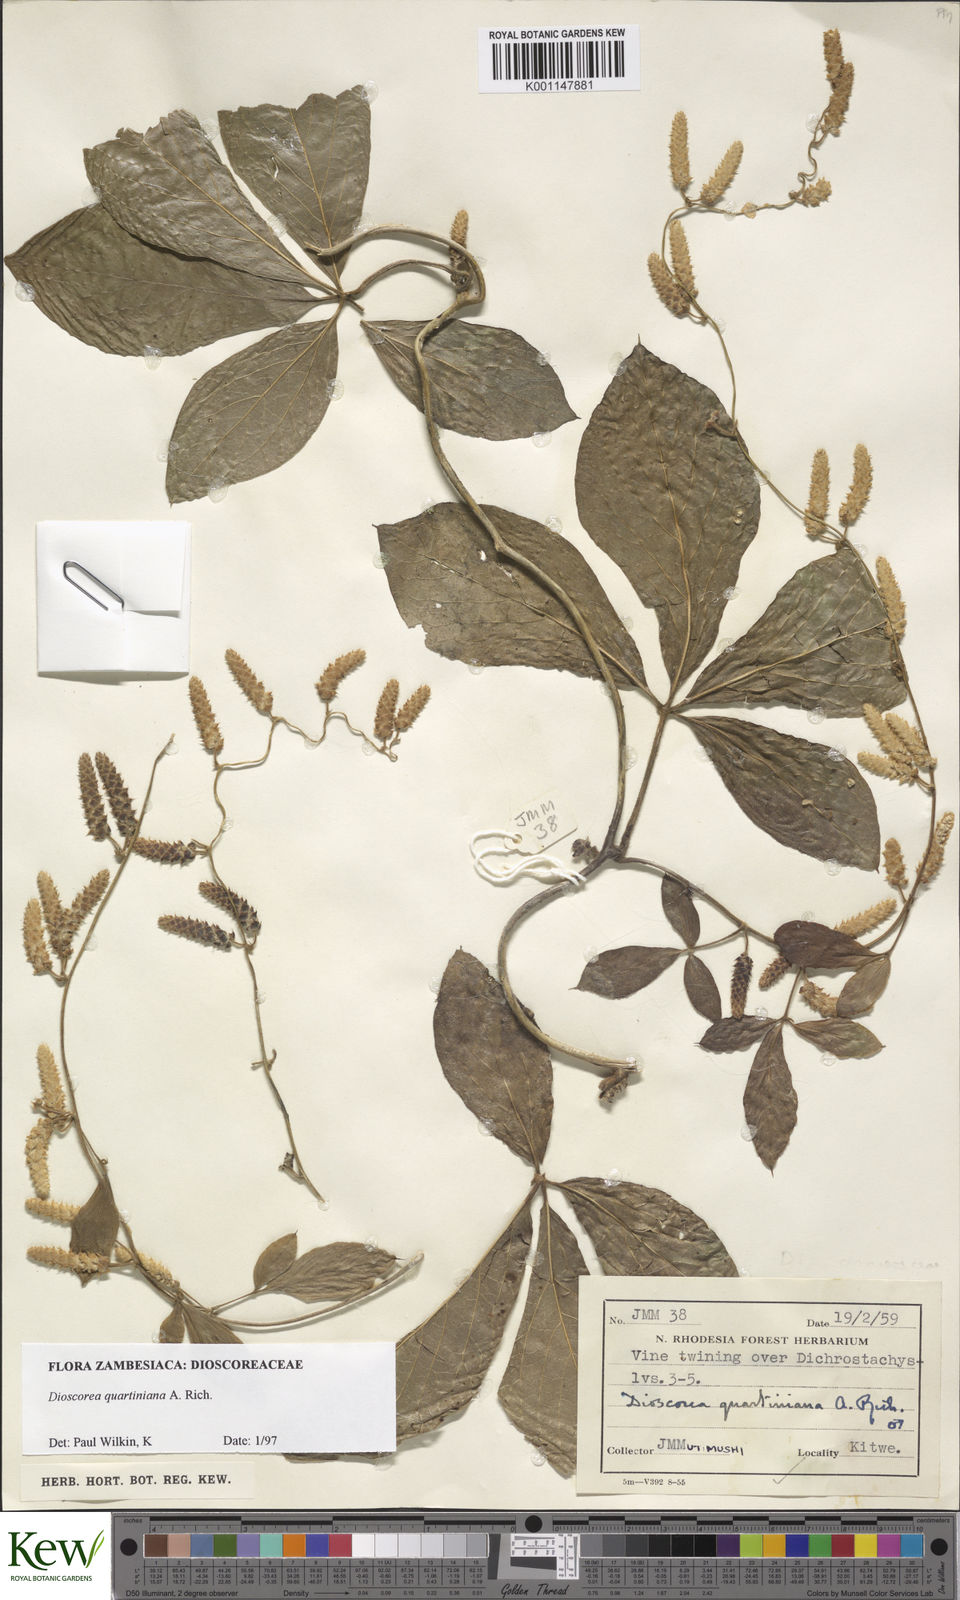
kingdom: Plantae
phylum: Tracheophyta
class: Liliopsida
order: Dioscoreales
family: Dioscoreaceae
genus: Dioscorea
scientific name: Dioscorea quartiniana
